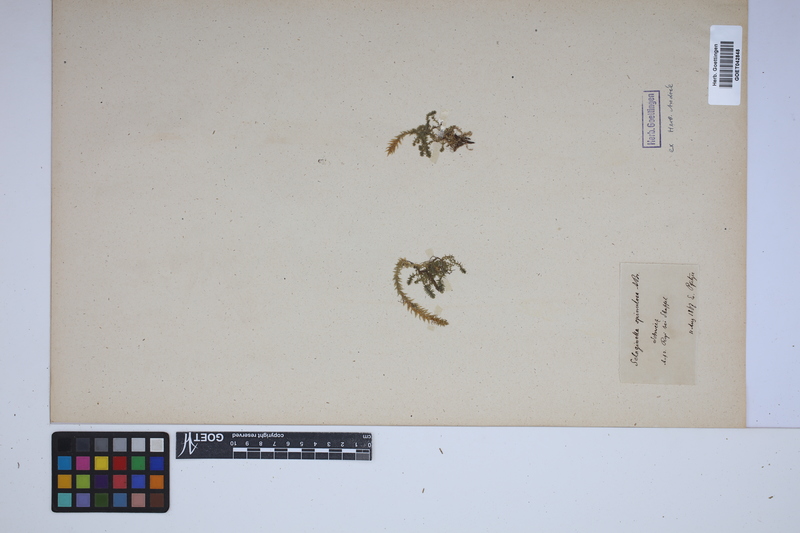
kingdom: Plantae
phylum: Tracheophyta
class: Lycopodiopsida
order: Selaginellales
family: Selaginellaceae
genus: Selaginella
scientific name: Selaginella selaginoides
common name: Prickly mountain-moss
